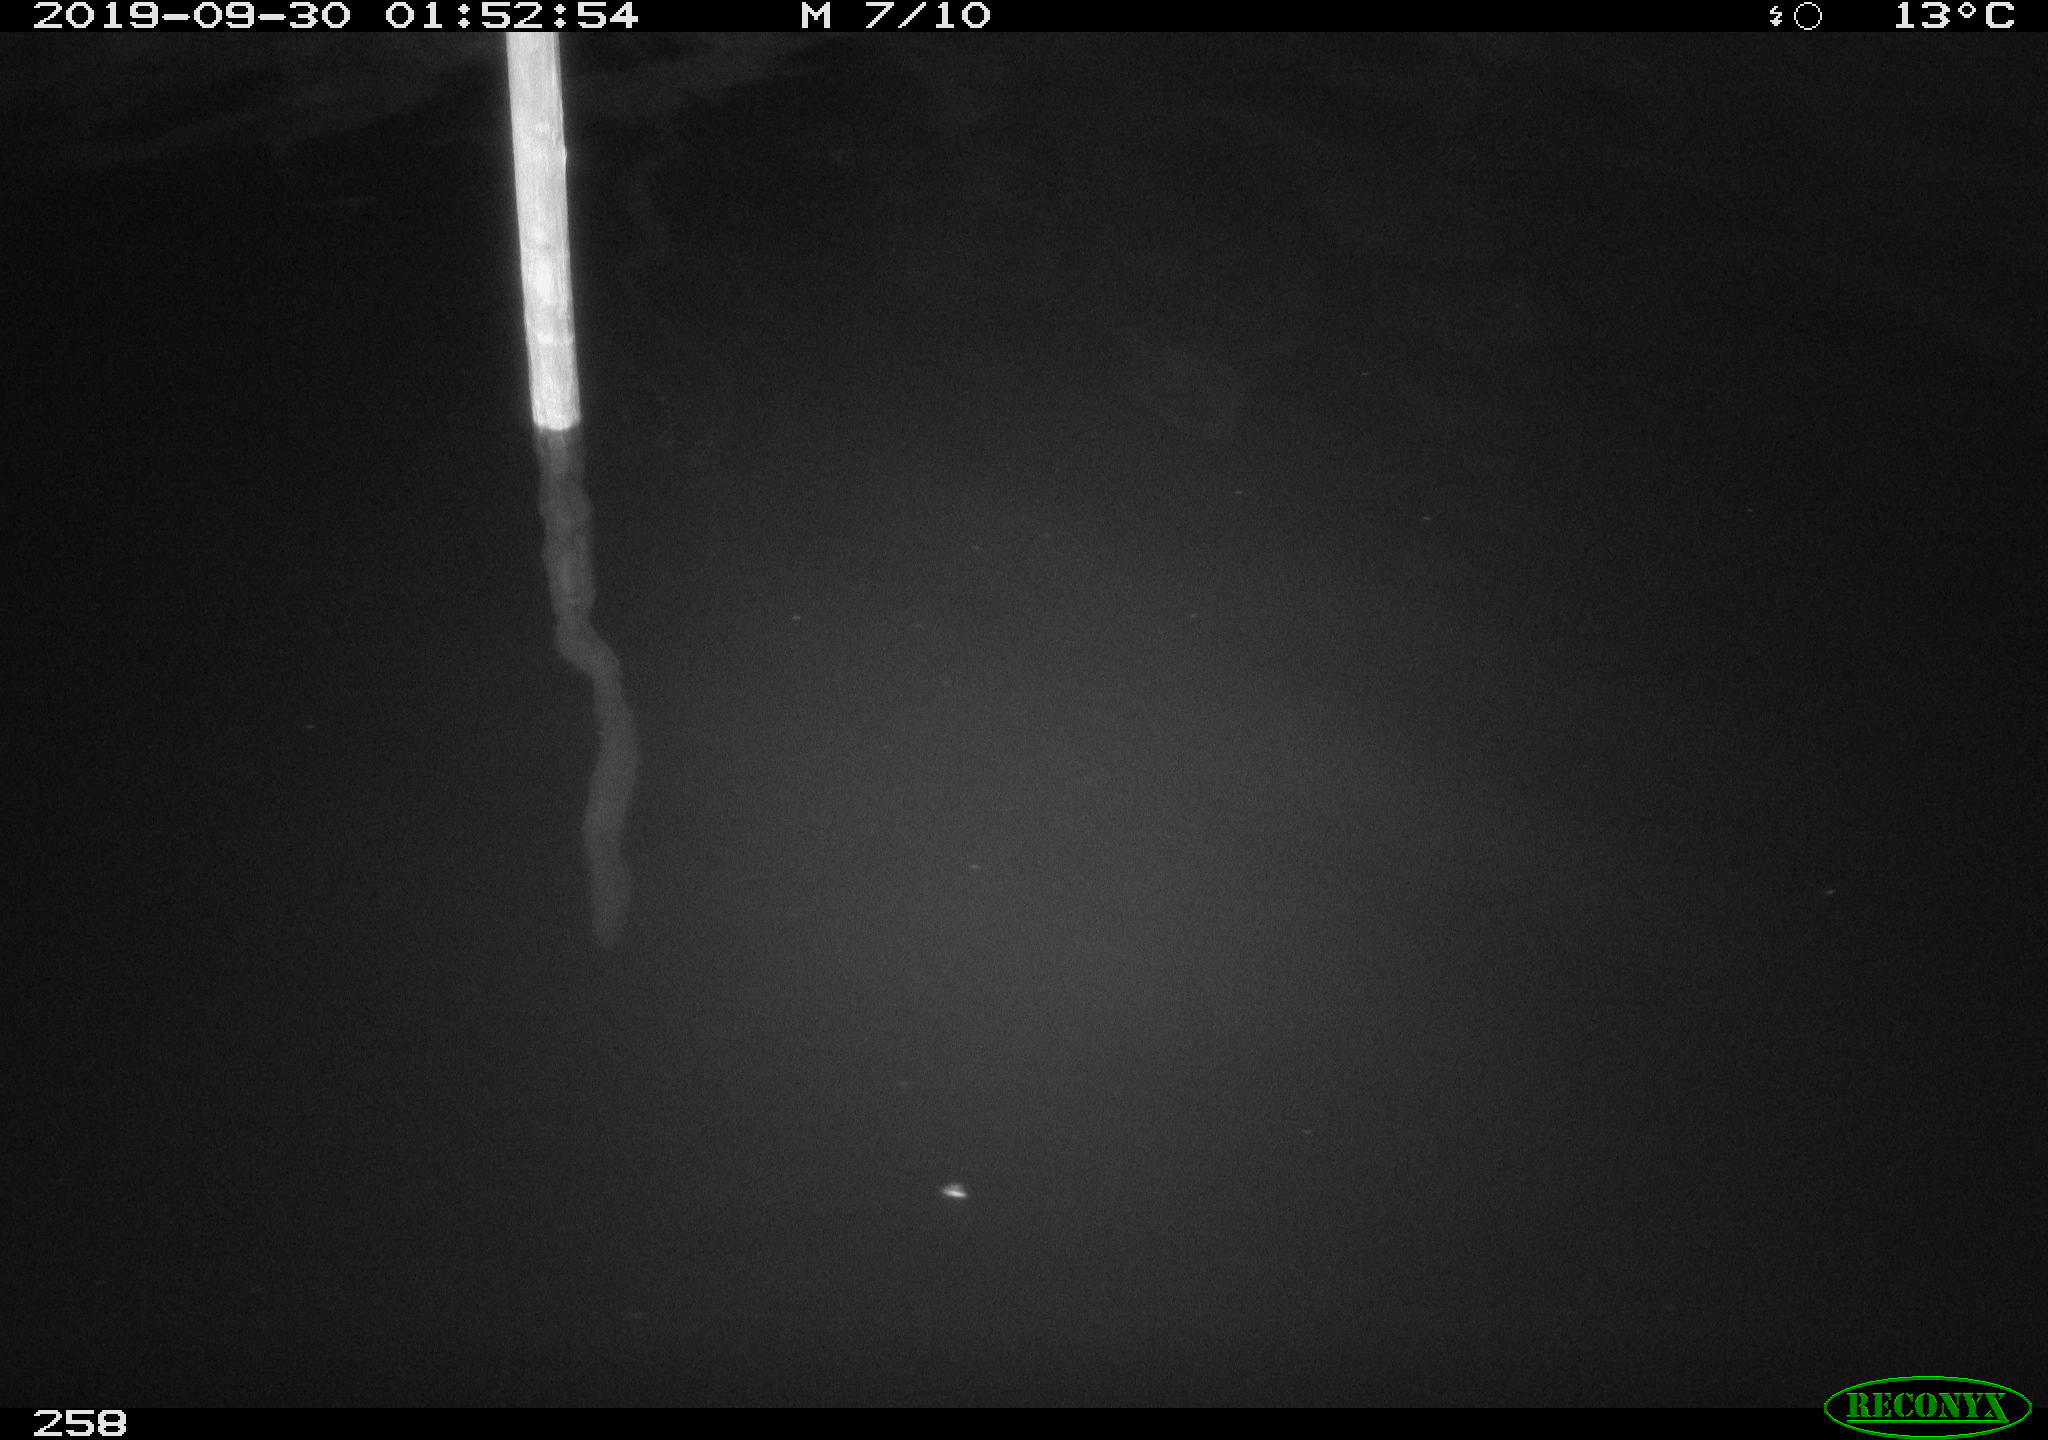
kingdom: Animalia
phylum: Chordata
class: Aves
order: Anseriformes
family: Anatidae
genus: Anas
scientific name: Anas platyrhynchos
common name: Mallard
